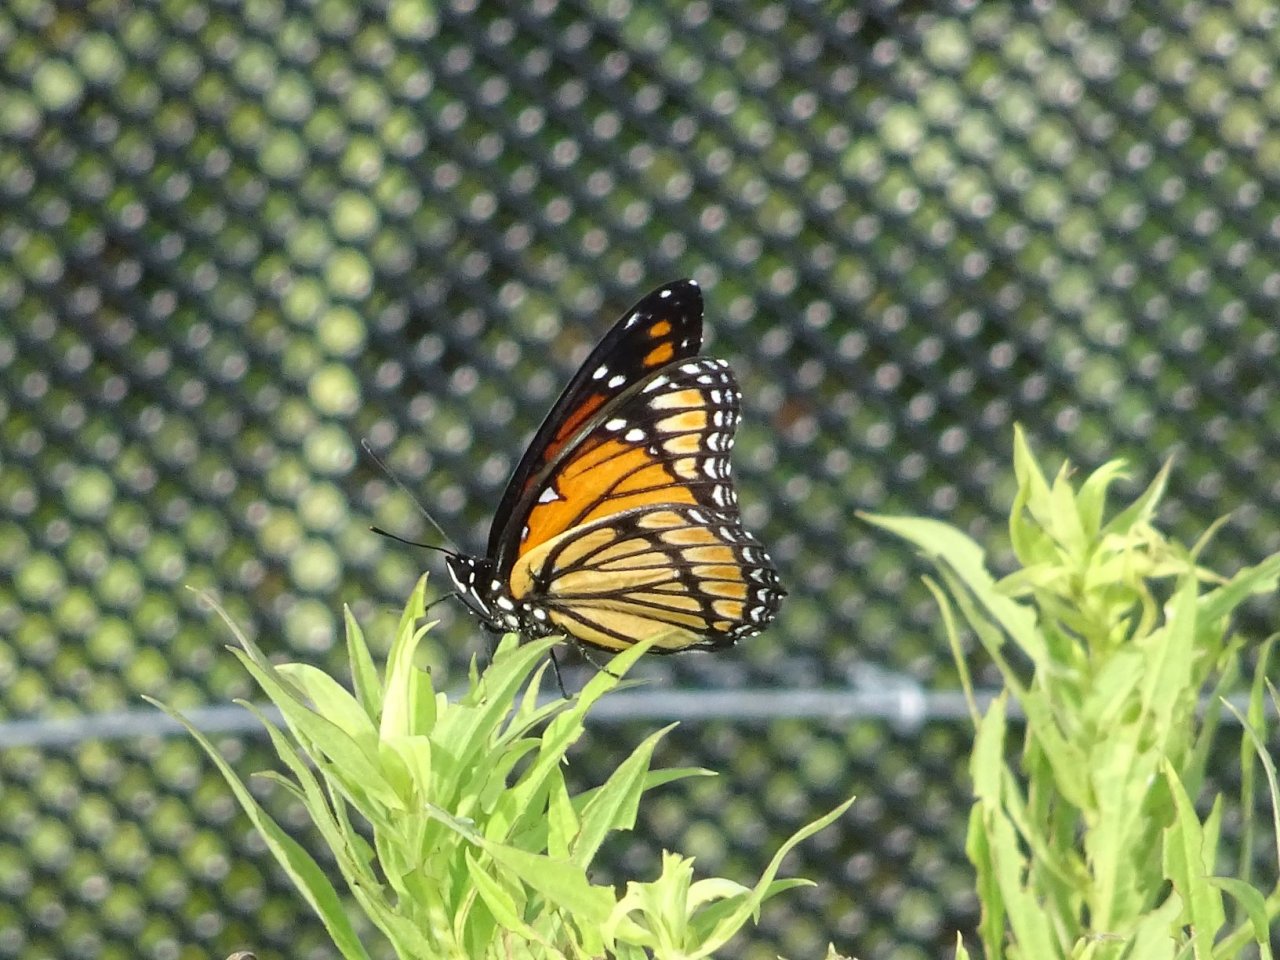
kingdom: Animalia
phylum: Arthropoda
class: Insecta
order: Lepidoptera
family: Nymphalidae
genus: Limenitis
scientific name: Limenitis archippus
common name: Viceroy
